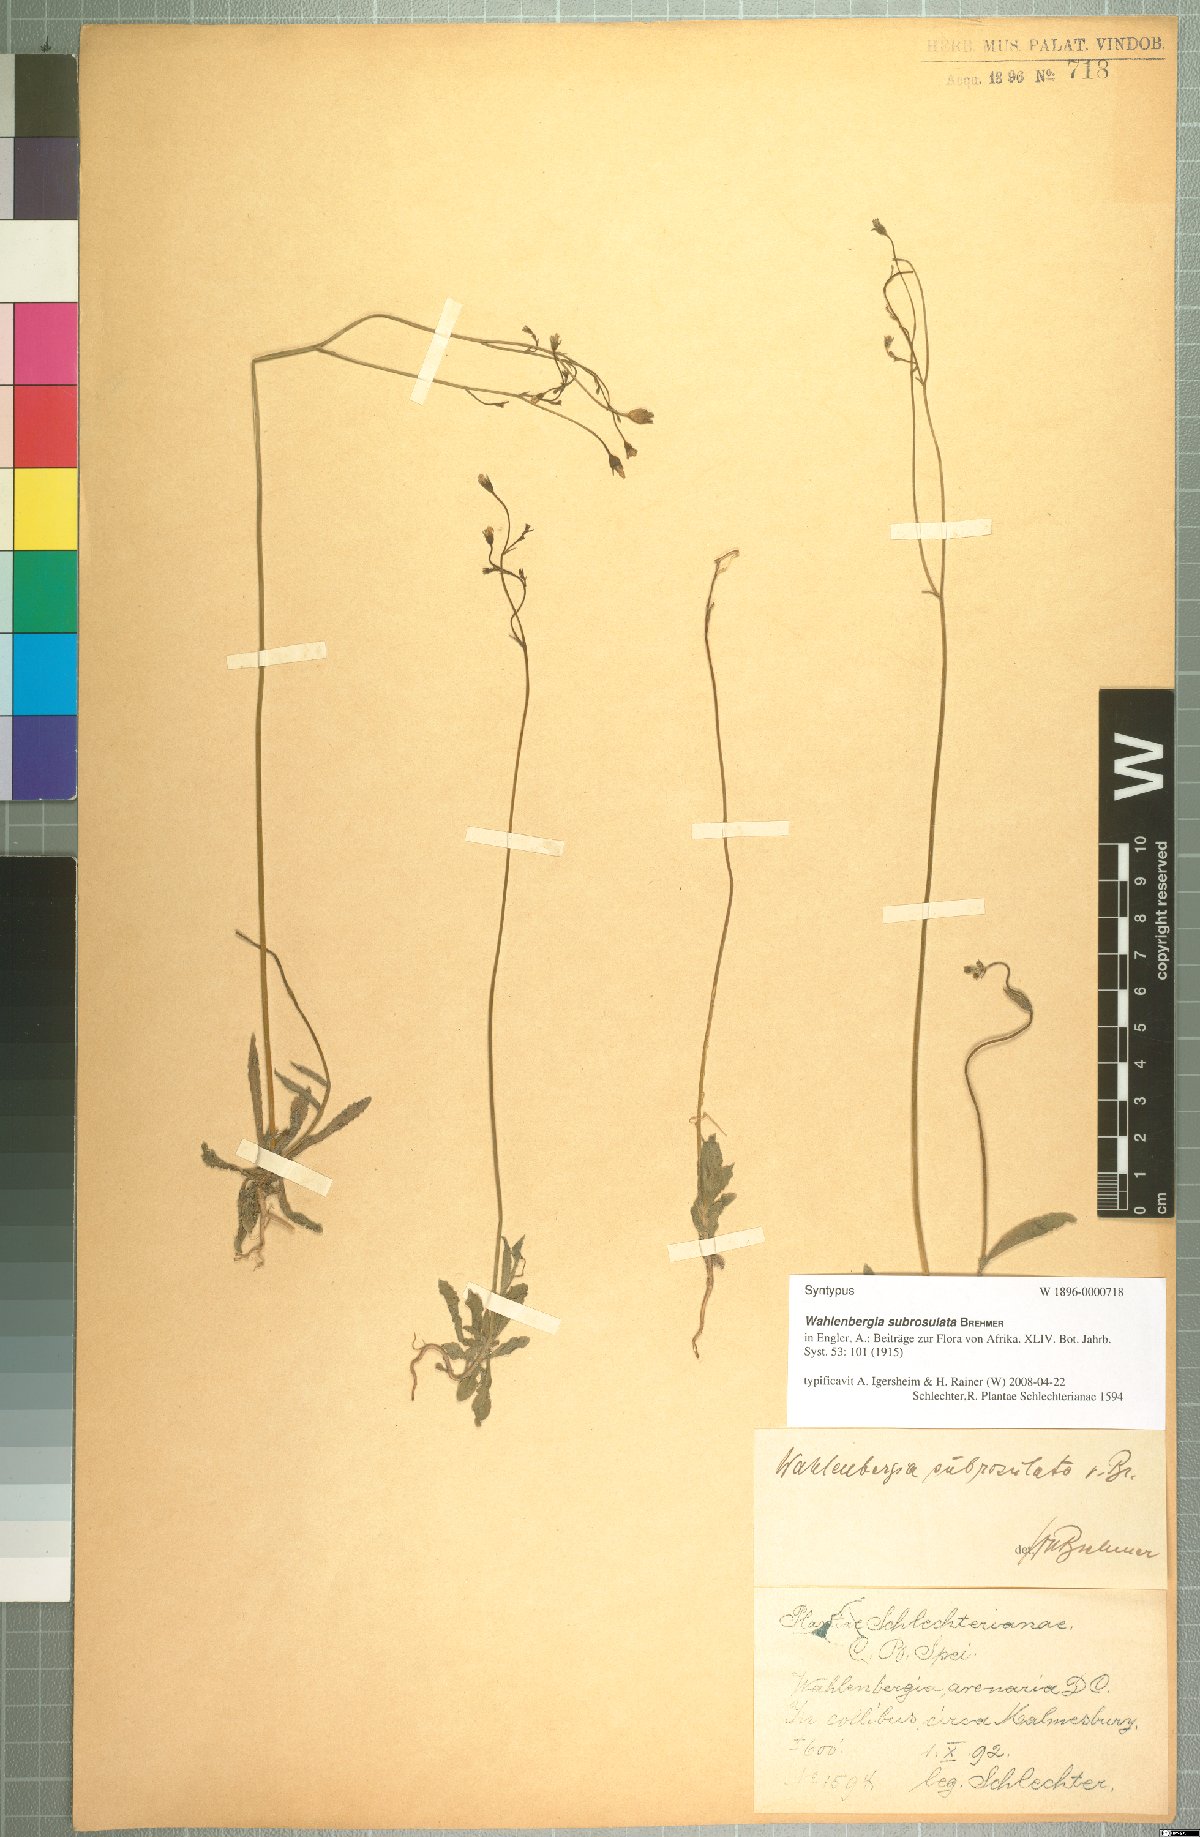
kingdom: Plantae
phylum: Tracheophyta
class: Magnoliopsida
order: Asterales
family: Campanulaceae
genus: Wahlenbergia
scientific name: Wahlenbergia subrosulata
